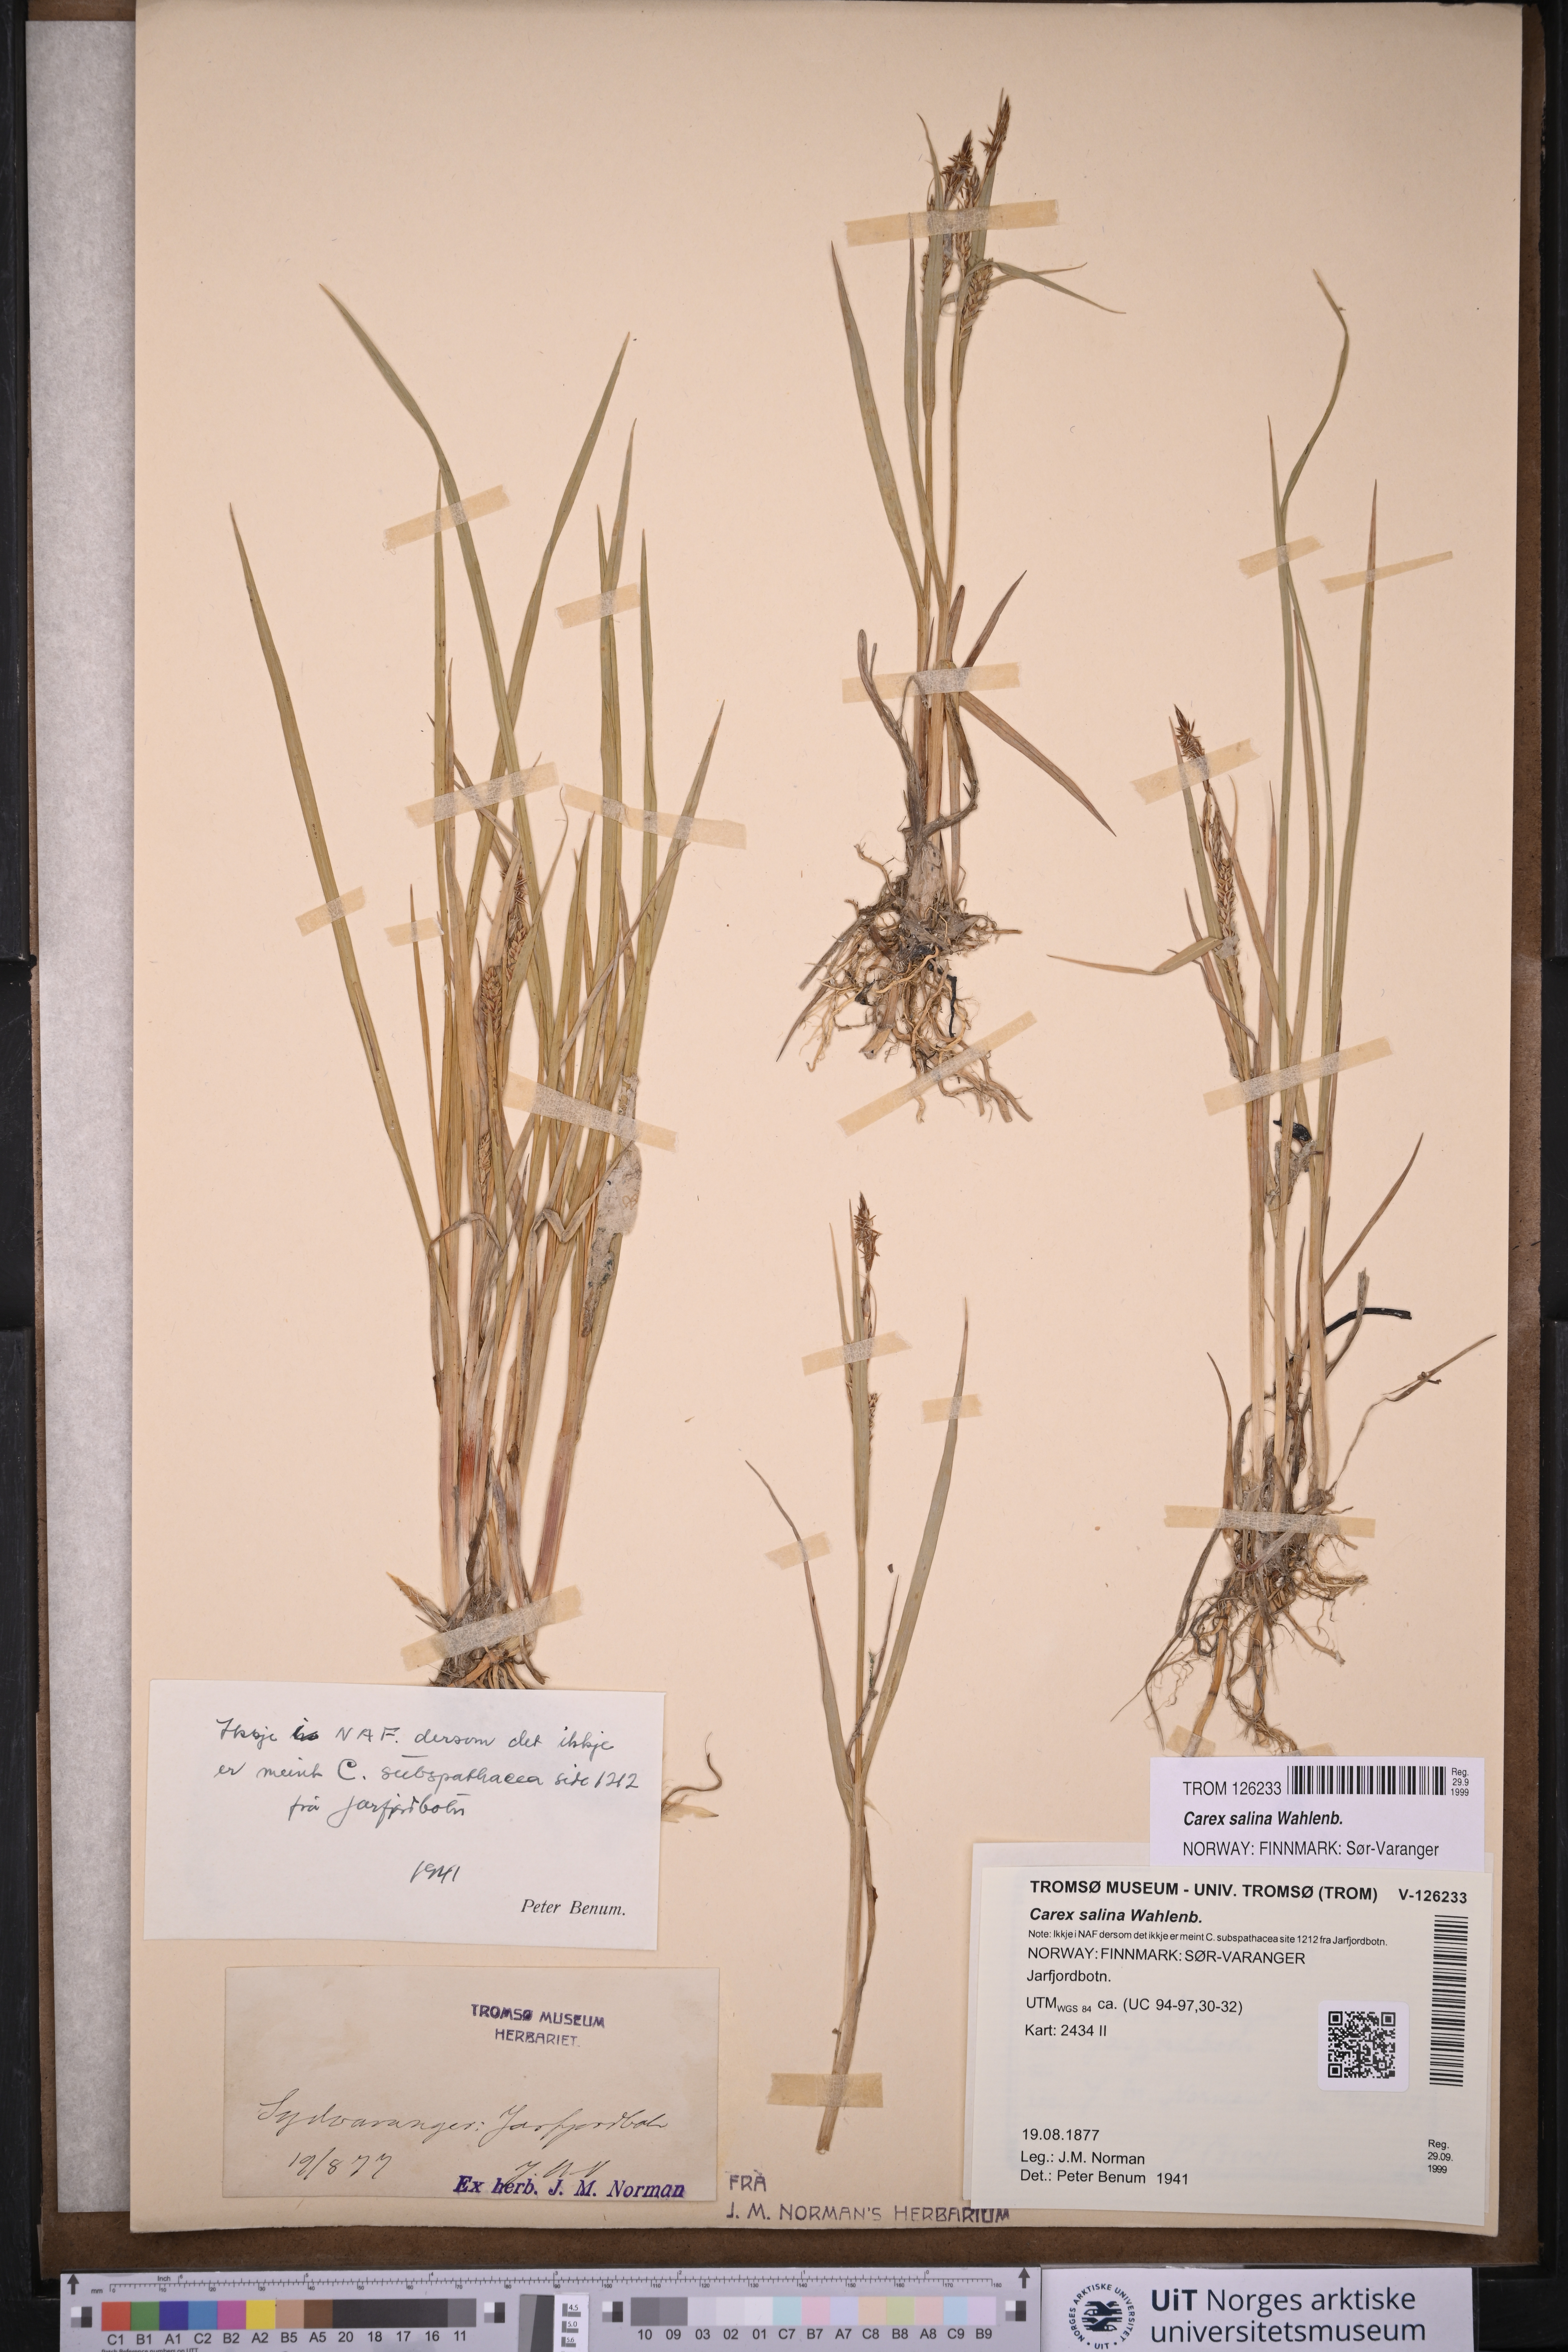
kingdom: Plantae
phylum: Tracheophyta
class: Liliopsida
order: Poales
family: Cyperaceae
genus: Carex
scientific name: Carex salina
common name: Saltmarsh sedge
